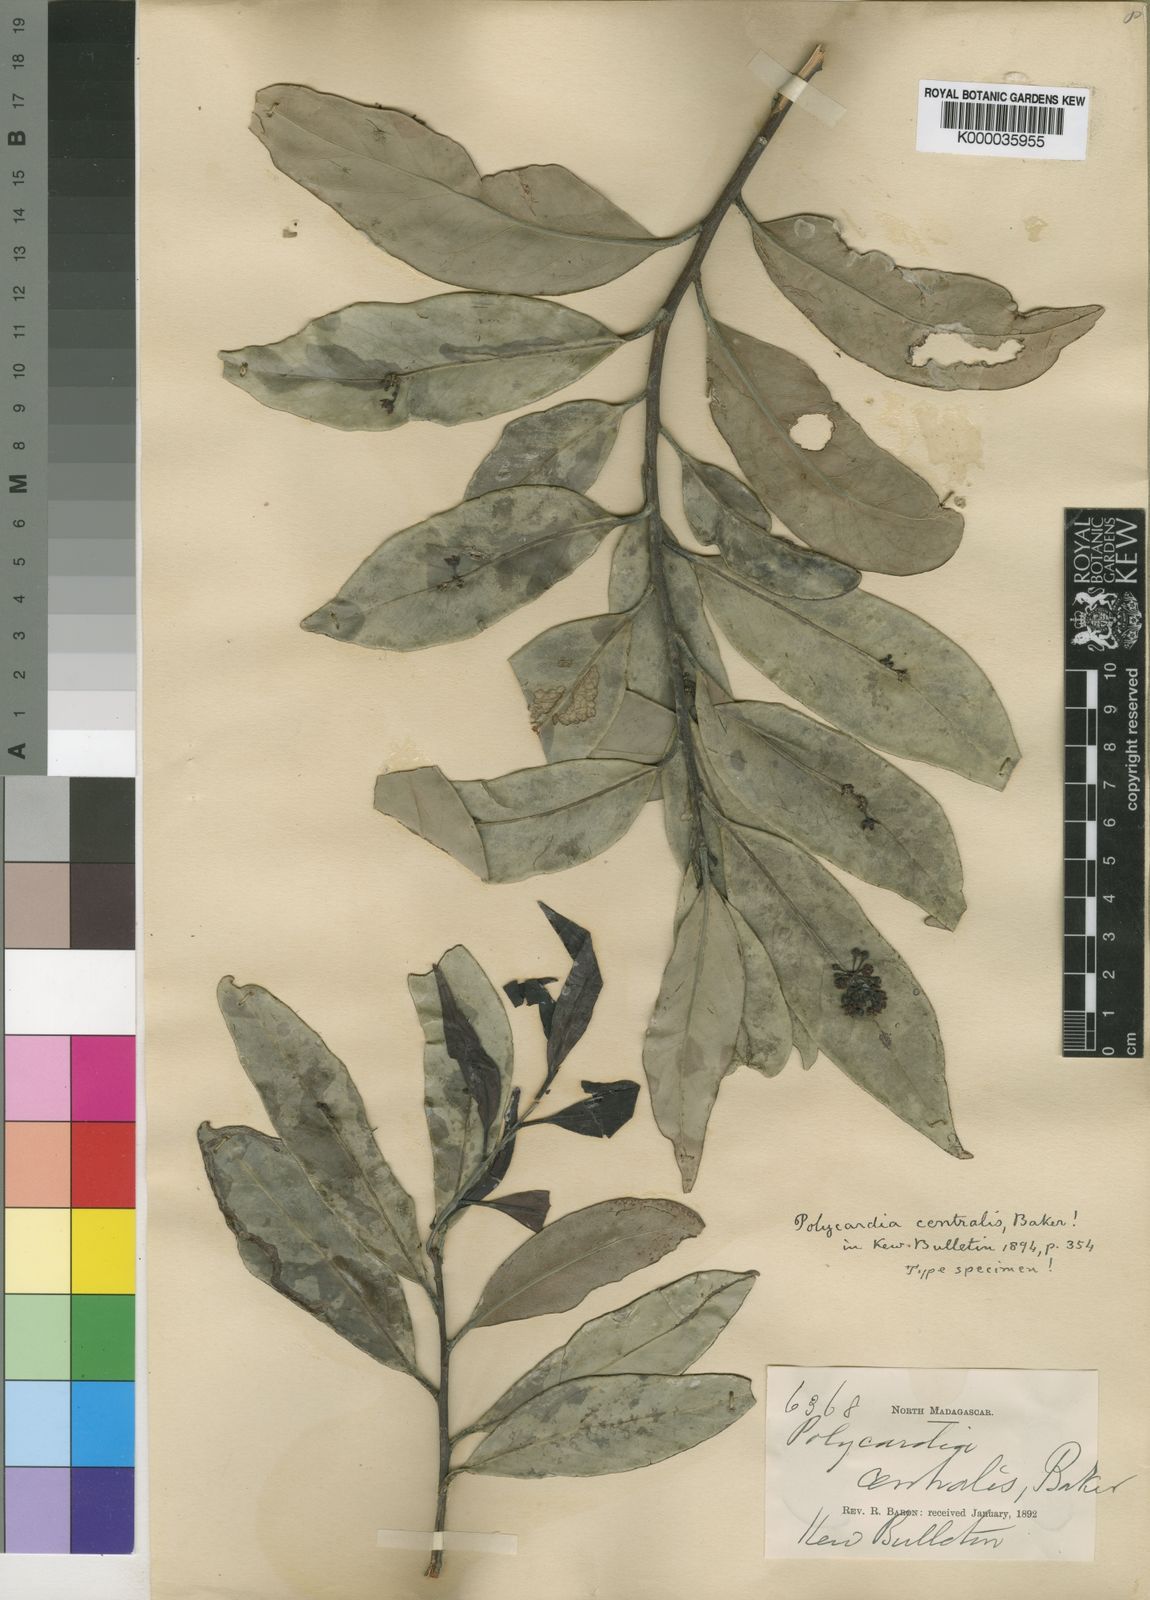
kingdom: Plantae
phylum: Tracheophyta
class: Magnoliopsida
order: Celastrales
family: Celastraceae
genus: Polycardia
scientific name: Polycardia lateralis
